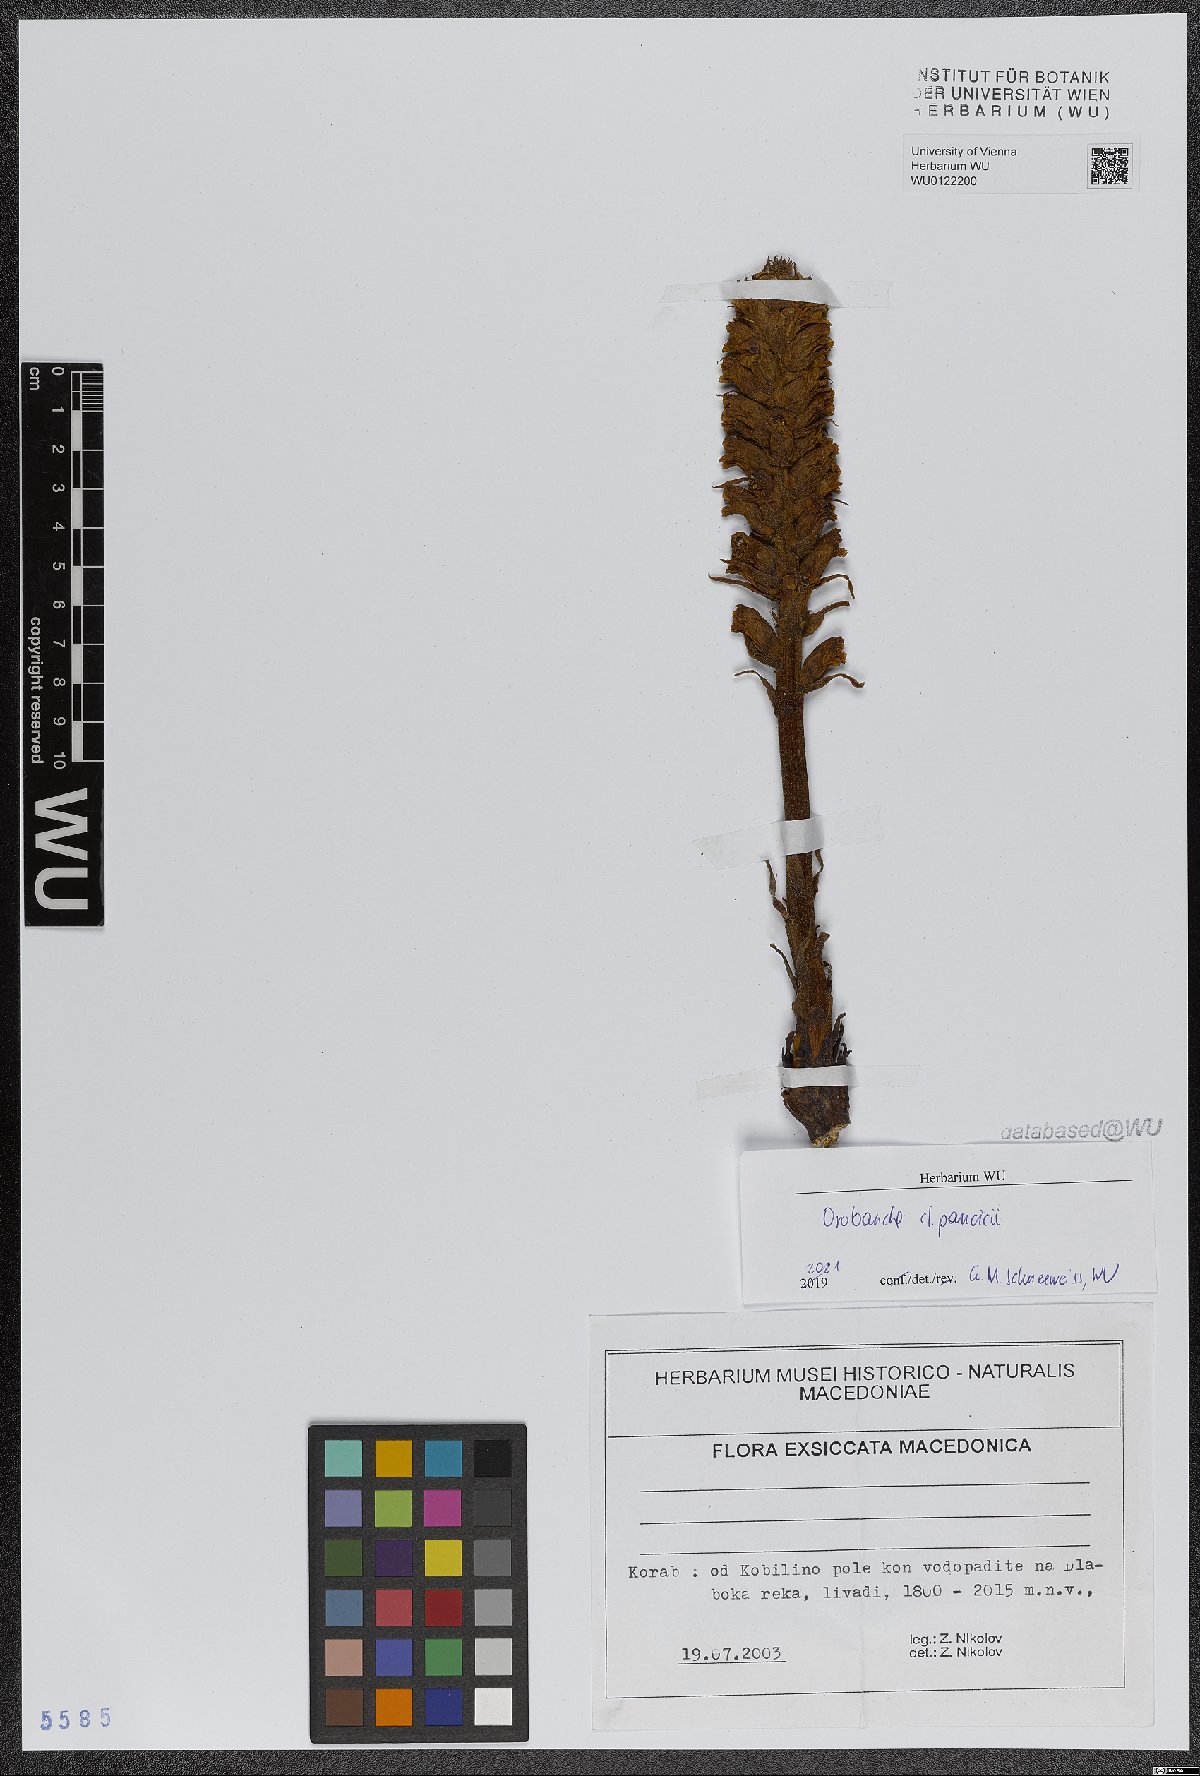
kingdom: Plantae
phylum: Tracheophyta
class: Magnoliopsida
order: Lamiales
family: Orobanchaceae
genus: Orobanche
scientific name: Orobanche pancicii
